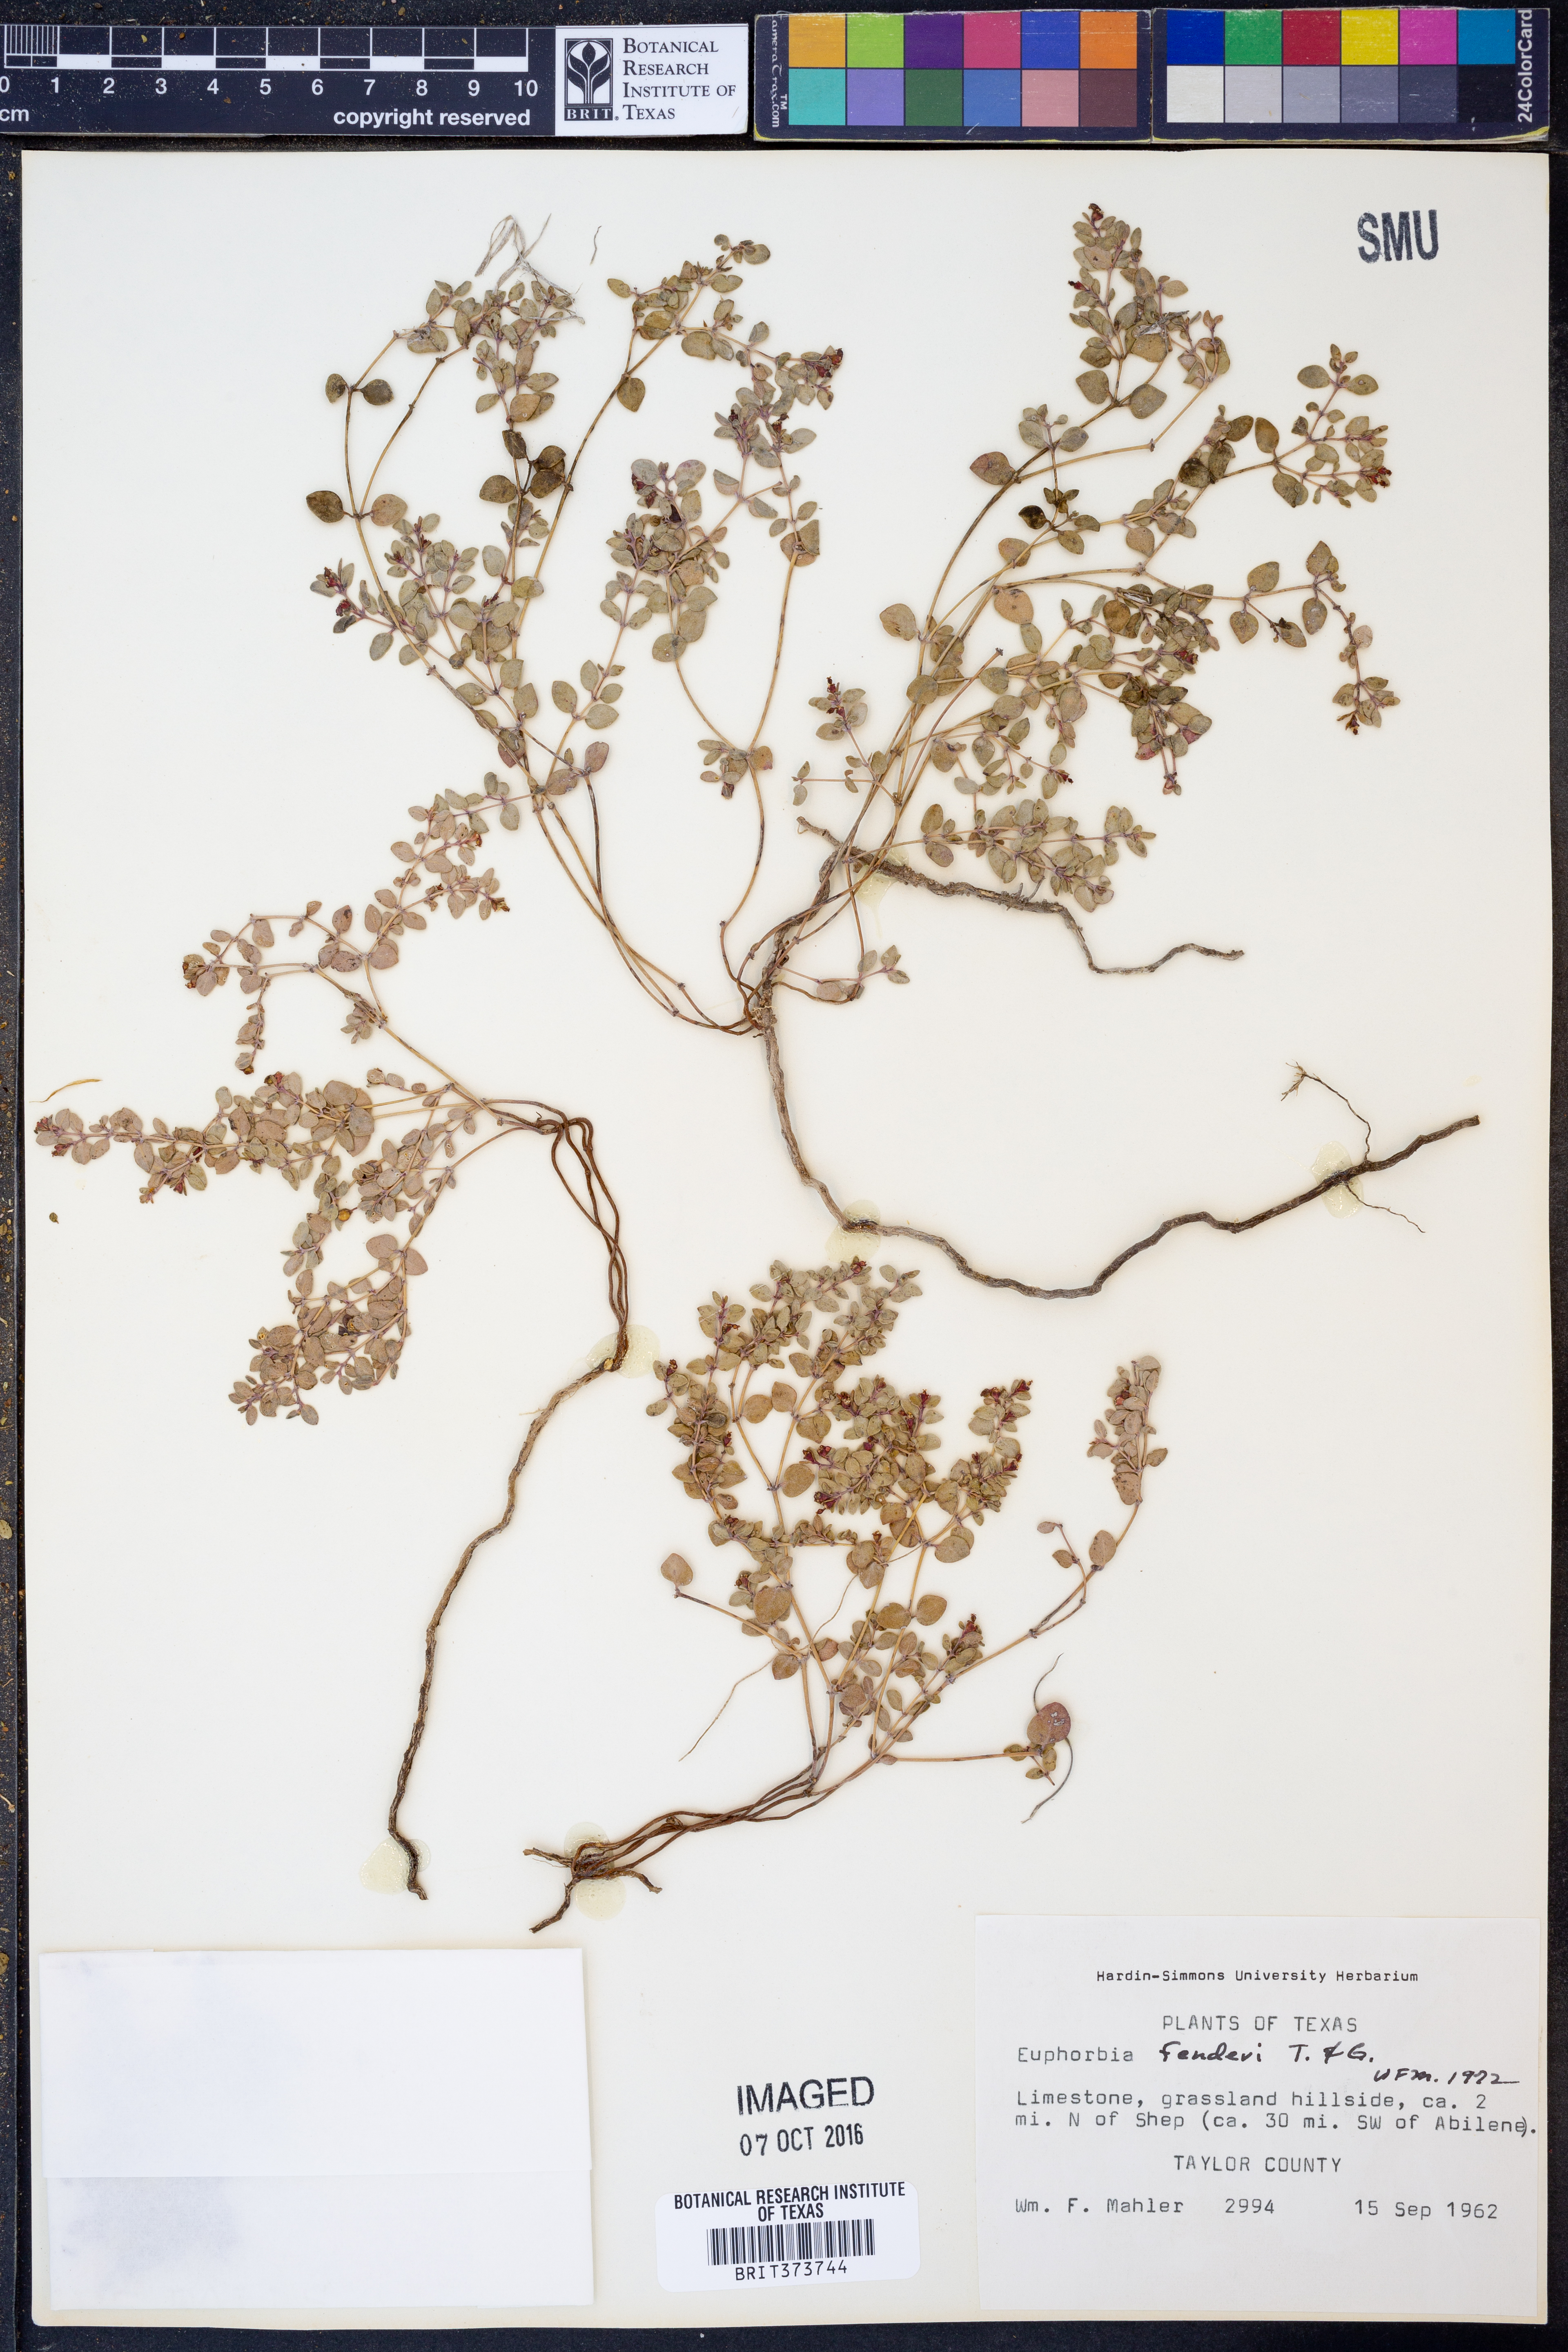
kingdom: Plantae
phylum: Tracheophyta
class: Magnoliopsida
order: Malpighiales
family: Euphorbiaceae
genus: Euphorbia
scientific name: Euphorbia fendleri
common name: Fendler's euphorbia
